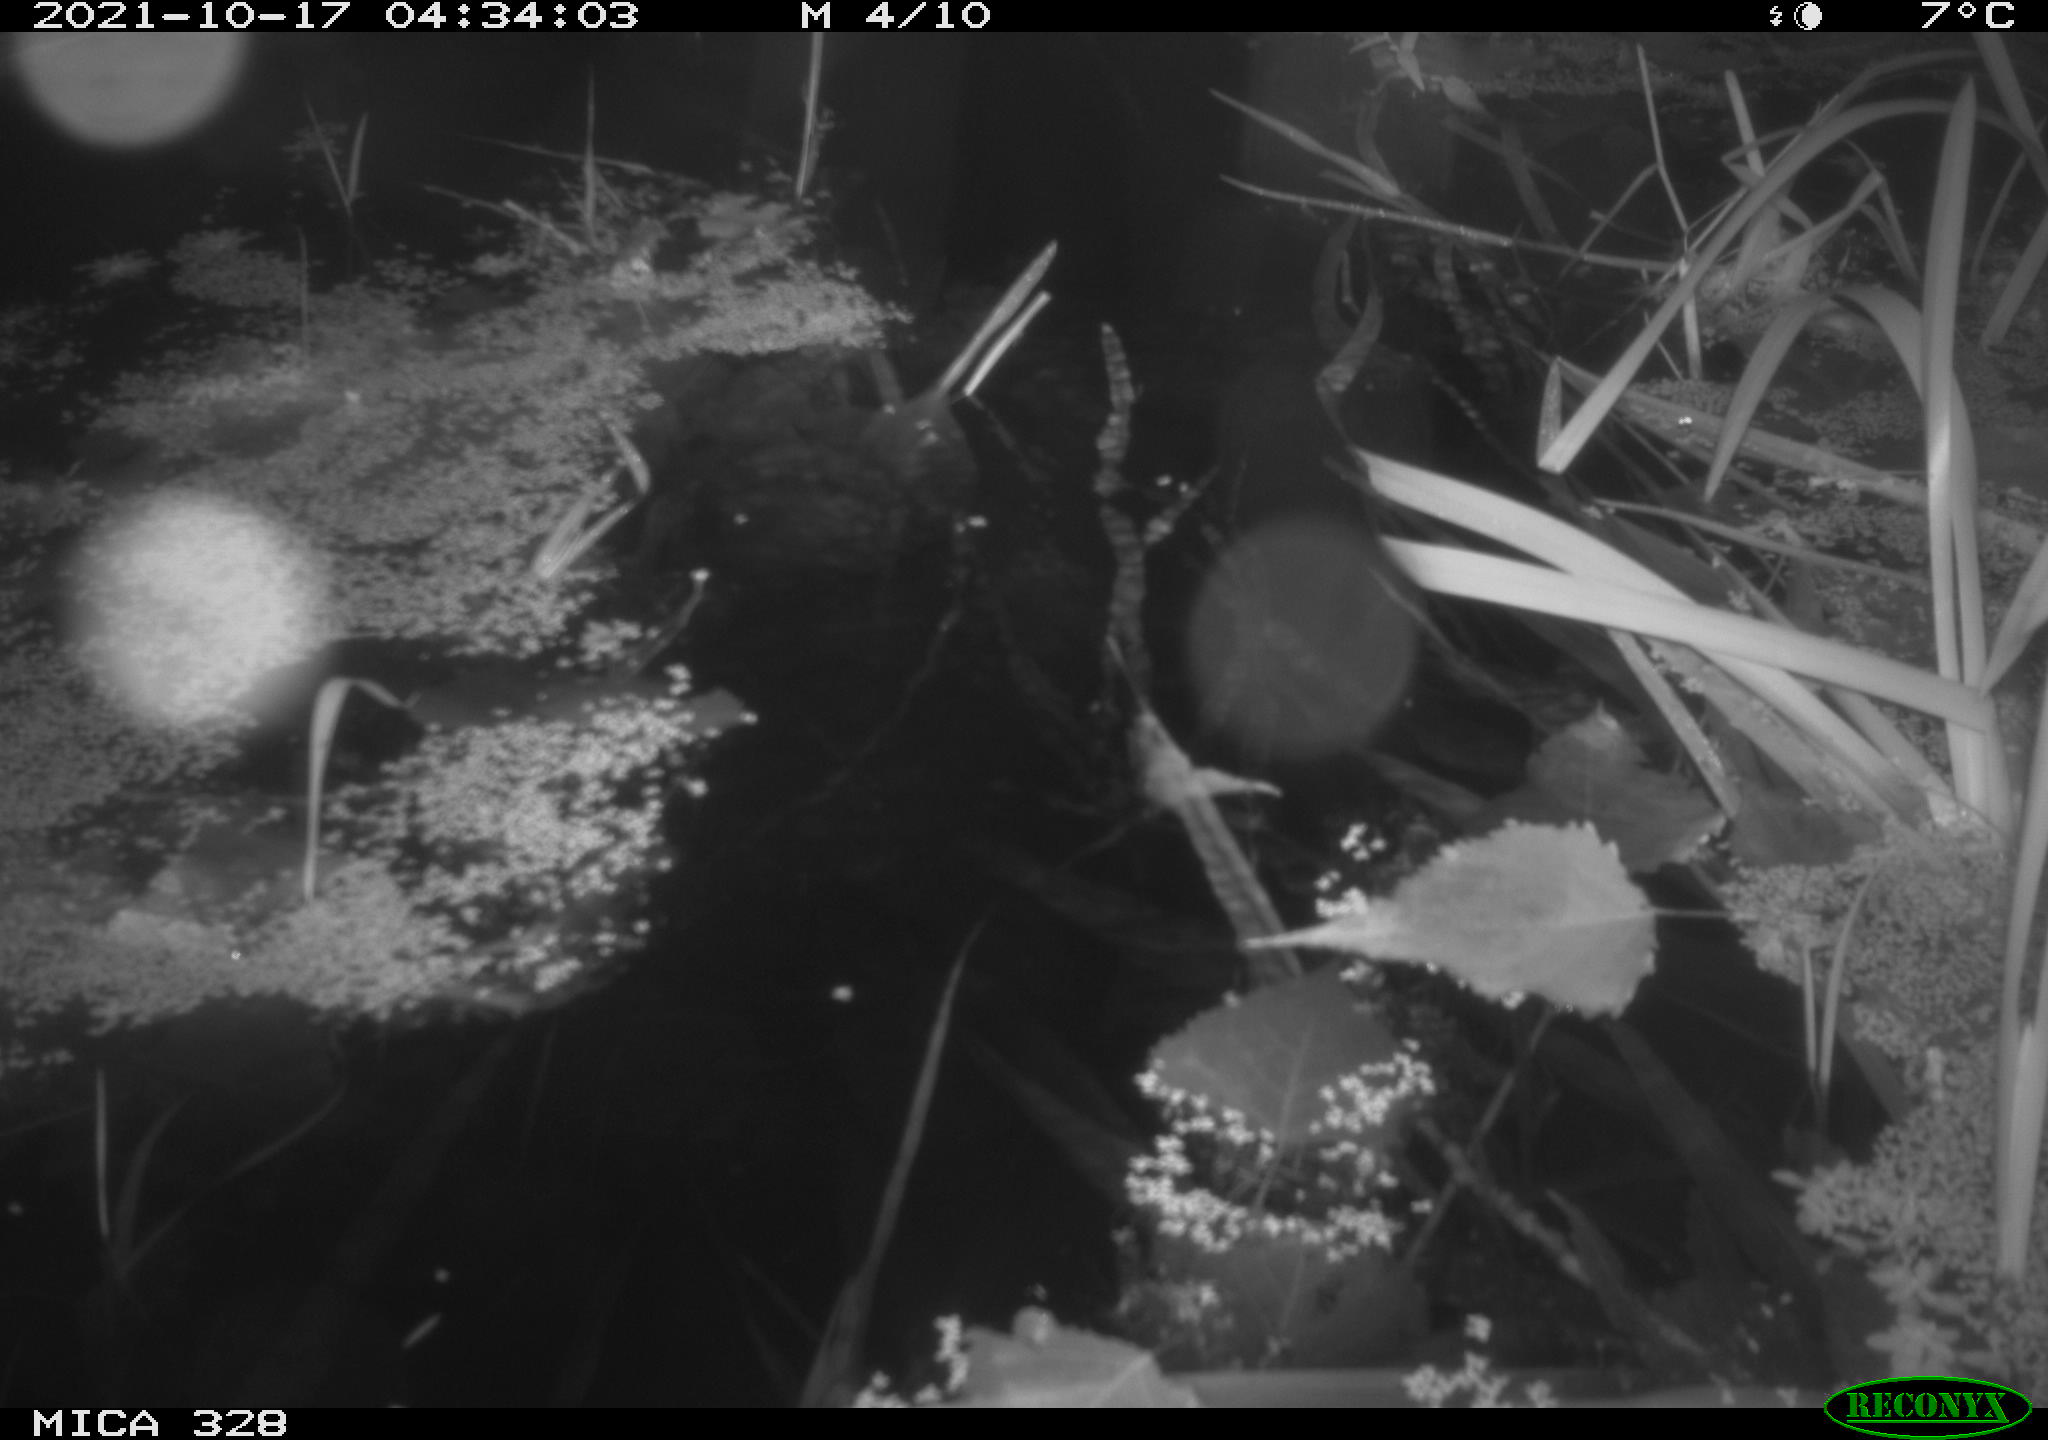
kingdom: Animalia
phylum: Chordata
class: Mammalia
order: Rodentia
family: Cricetidae
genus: Ondatra
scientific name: Ondatra zibethicus
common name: Muskrat
